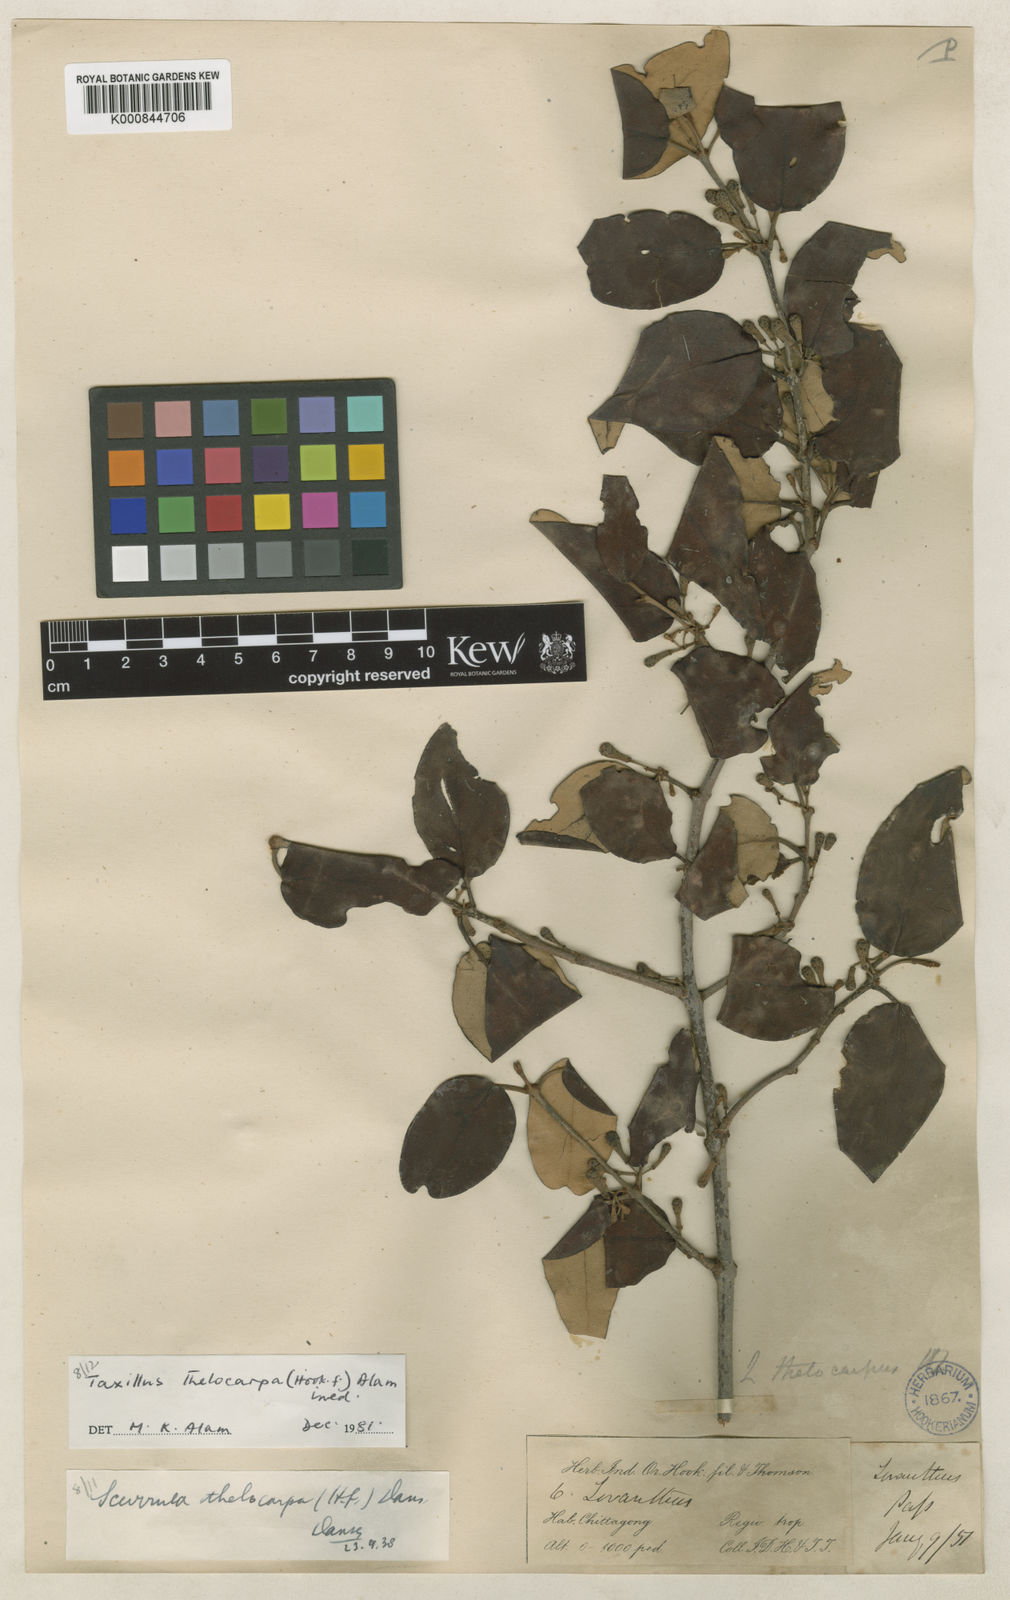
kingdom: Plantae
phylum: Tracheophyta
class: Magnoliopsida
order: Santalales
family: Loranthaceae
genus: Taxillus
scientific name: Taxillus thelocarpa
